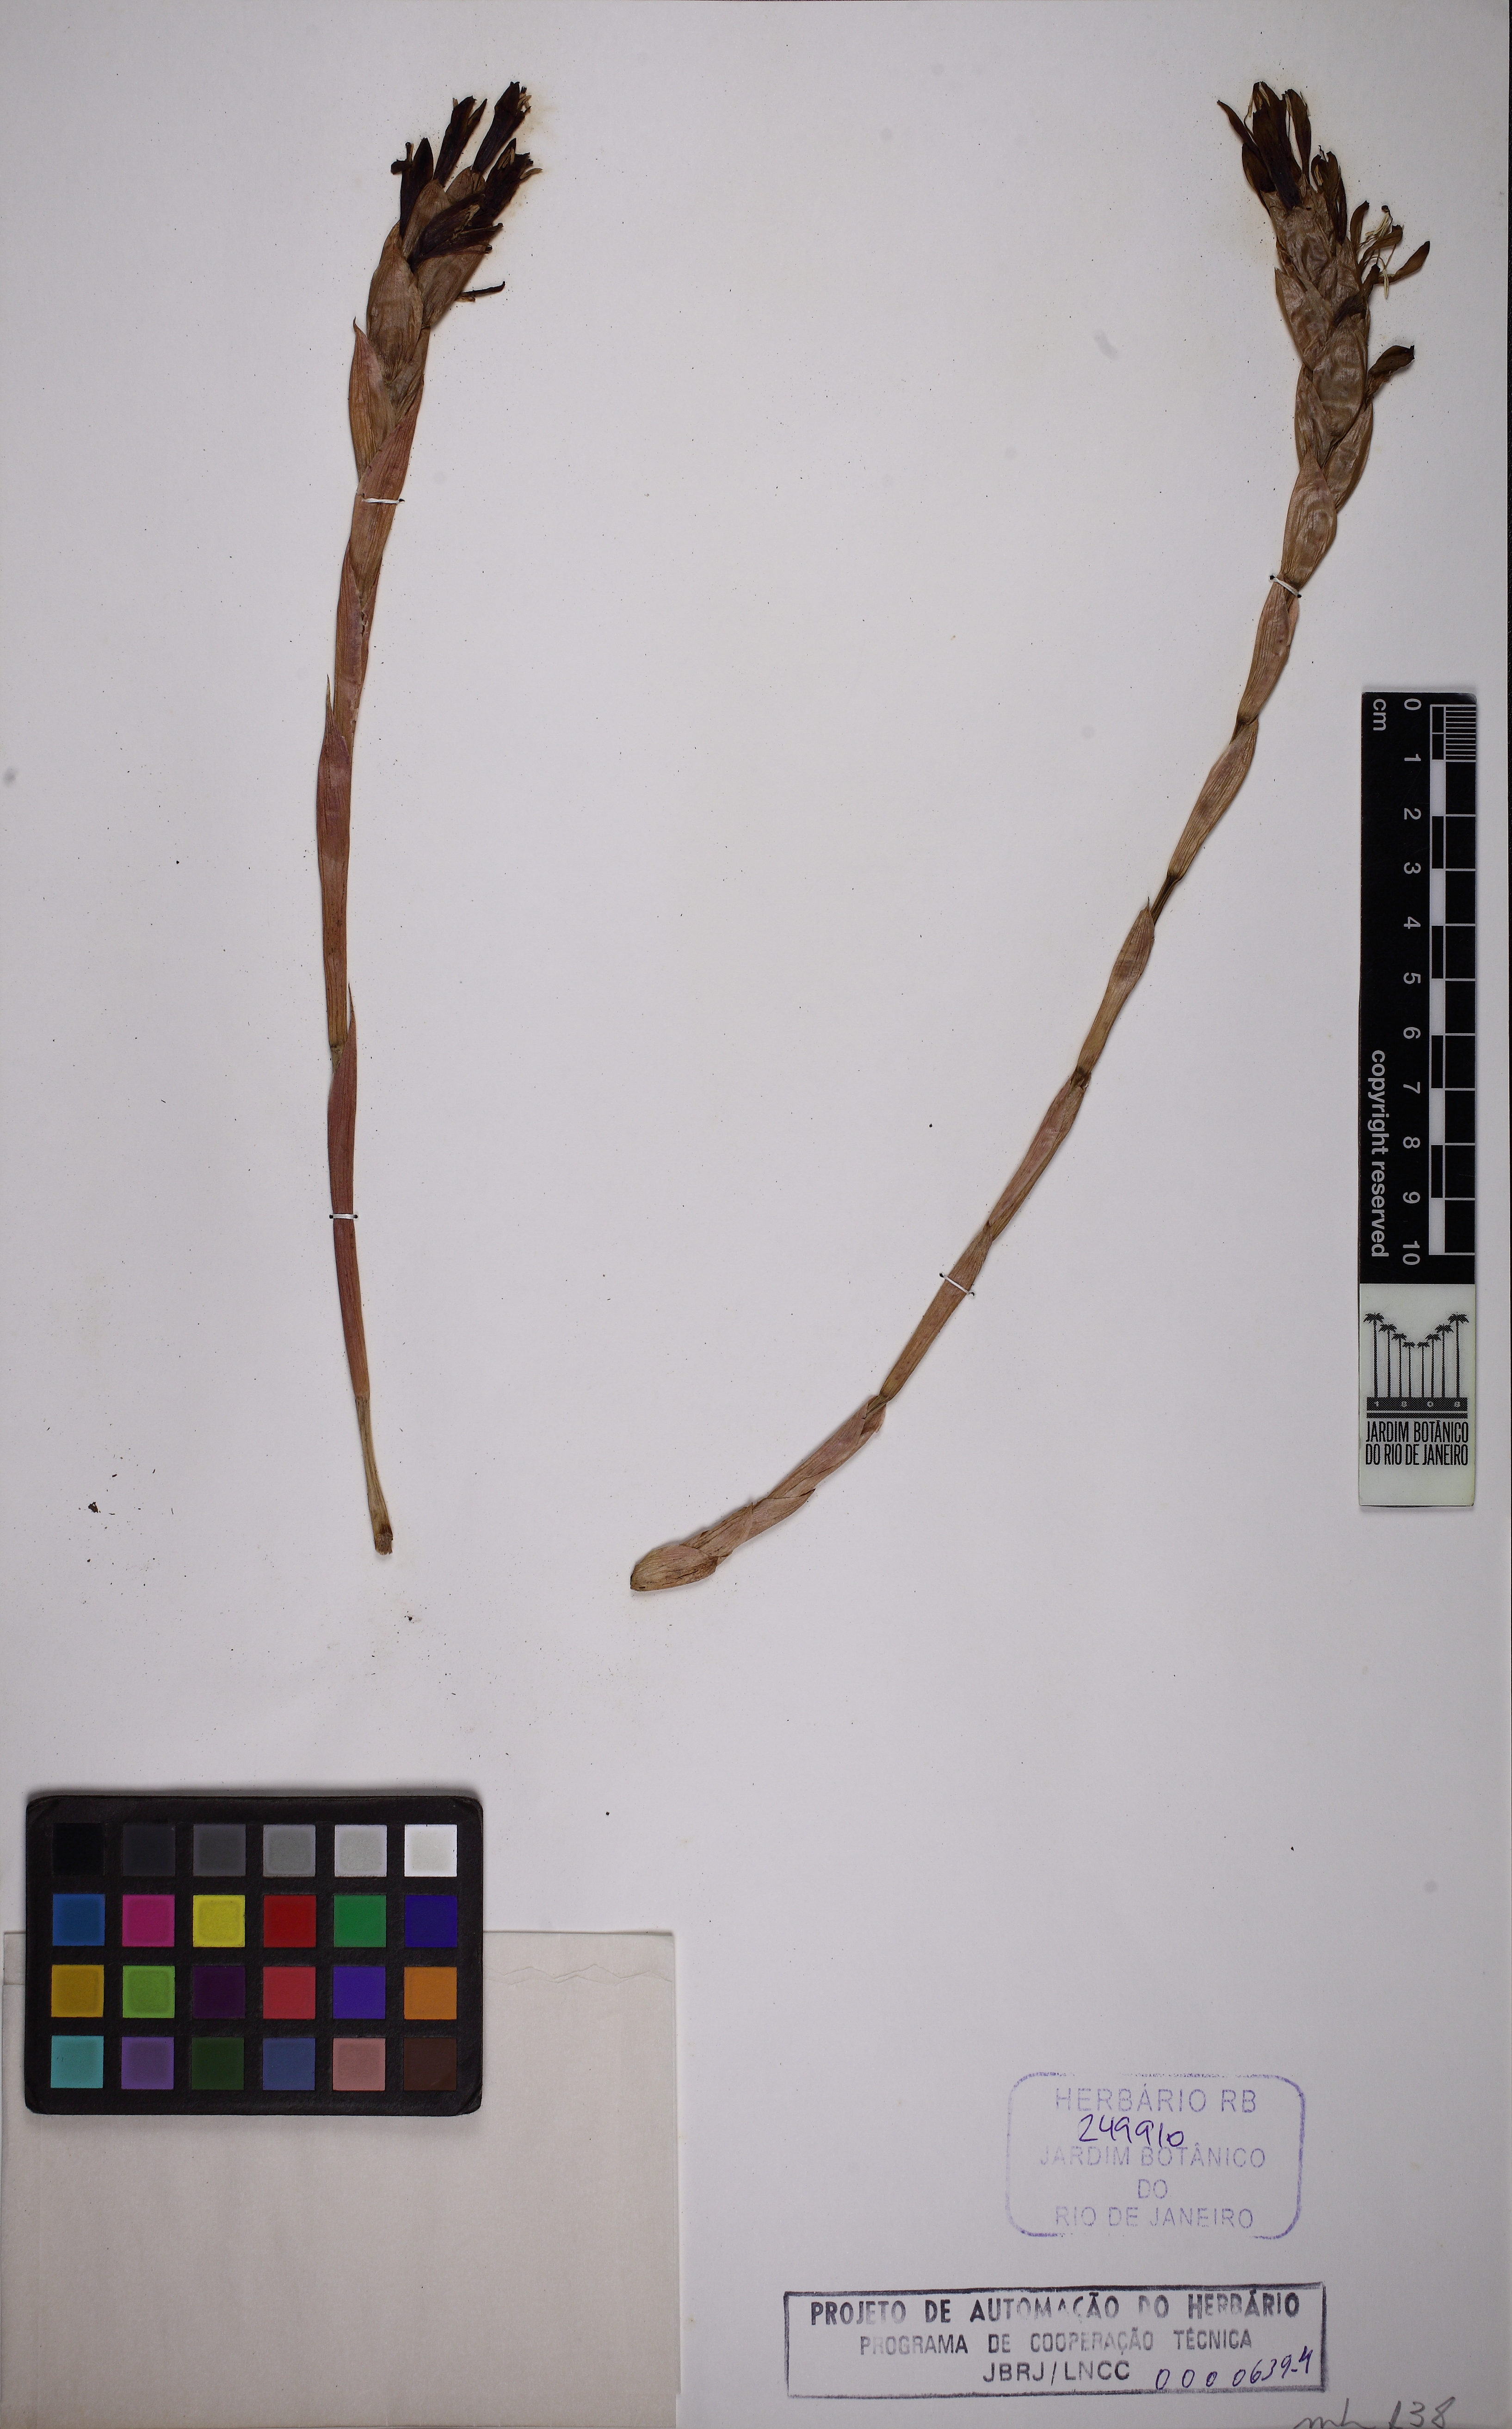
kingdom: Plantae
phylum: Tracheophyta
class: Liliopsida
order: Poales
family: Bromeliaceae
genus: Quesnelia
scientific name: Quesnelia lateralis
